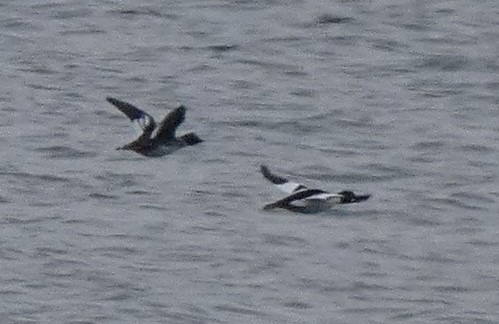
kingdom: Animalia
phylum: Chordata
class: Aves
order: Anseriformes
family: Anatidae
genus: Bucephala
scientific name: Bucephala clangula
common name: Hvinand
